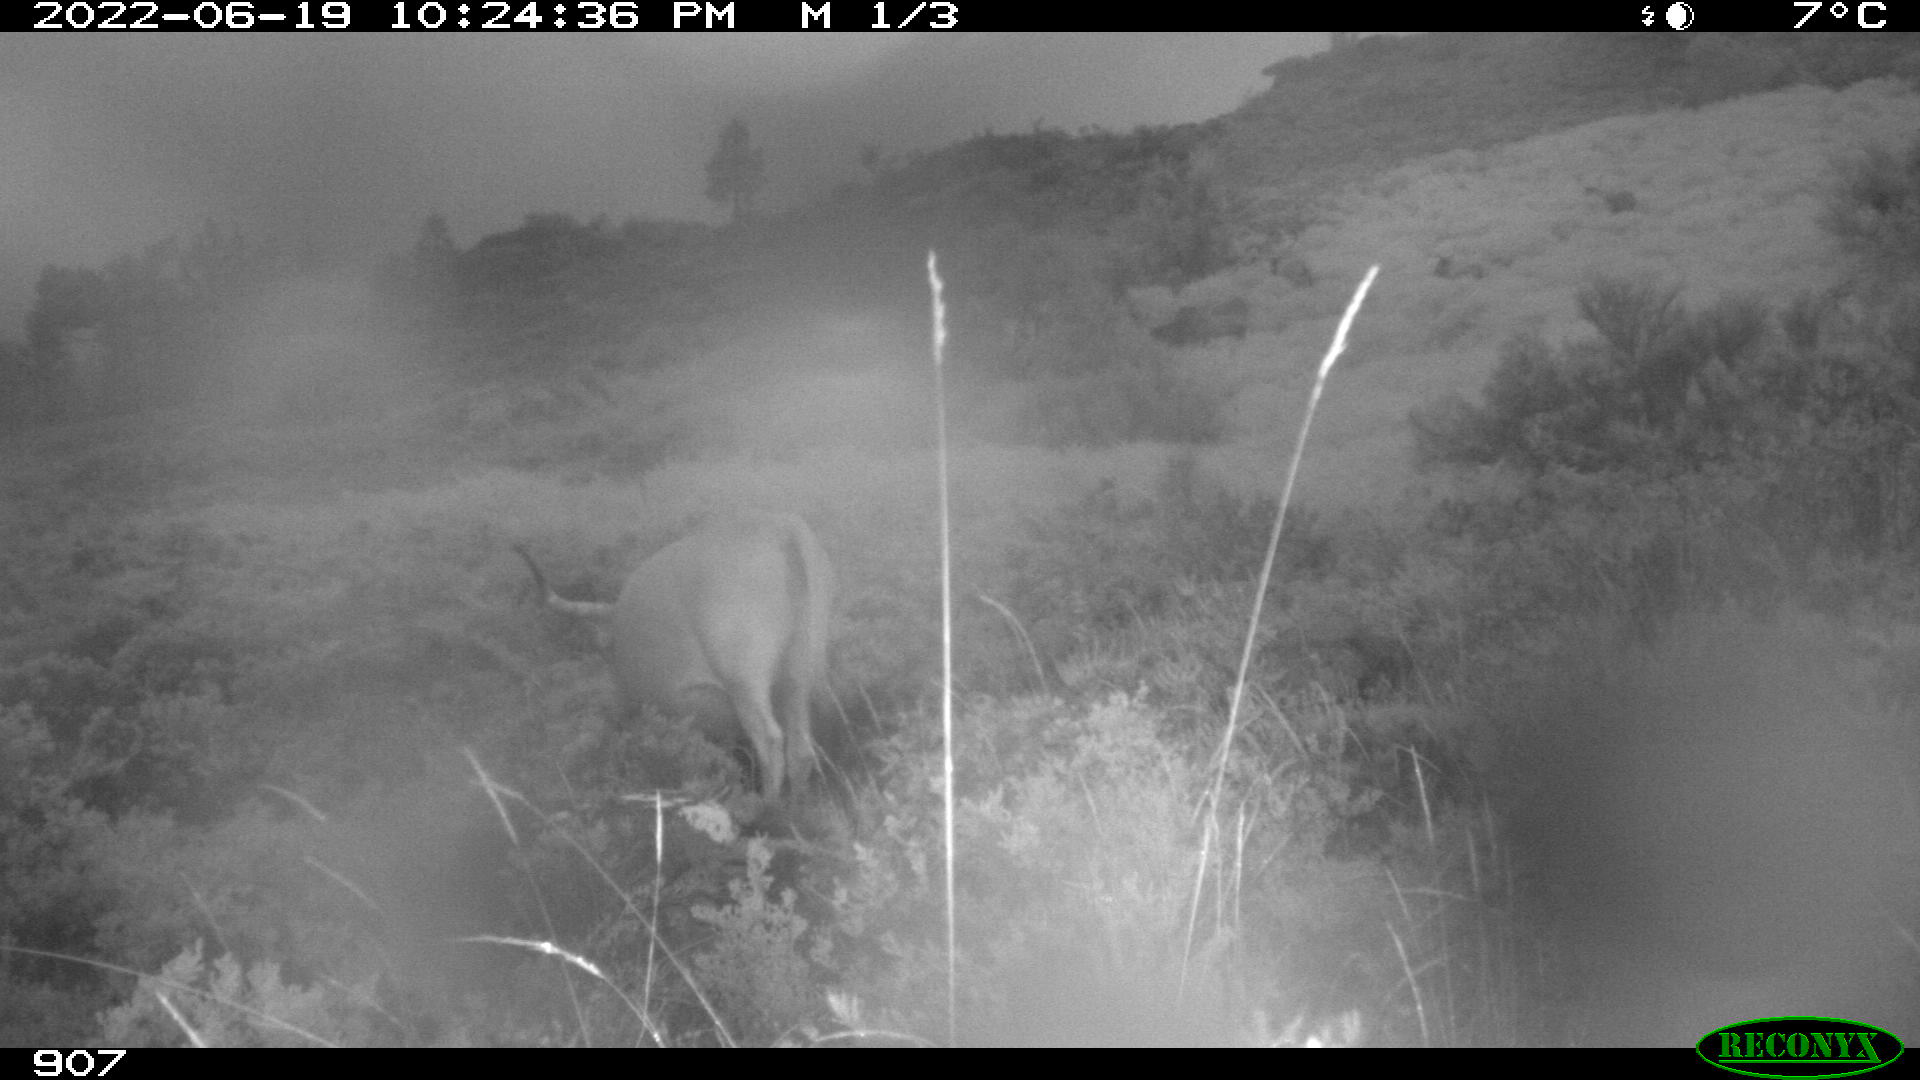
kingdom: Animalia
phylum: Chordata
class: Mammalia
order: Artiodactyla
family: Bovidae
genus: Bos
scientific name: Bos taurus
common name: Domesticated cattle
